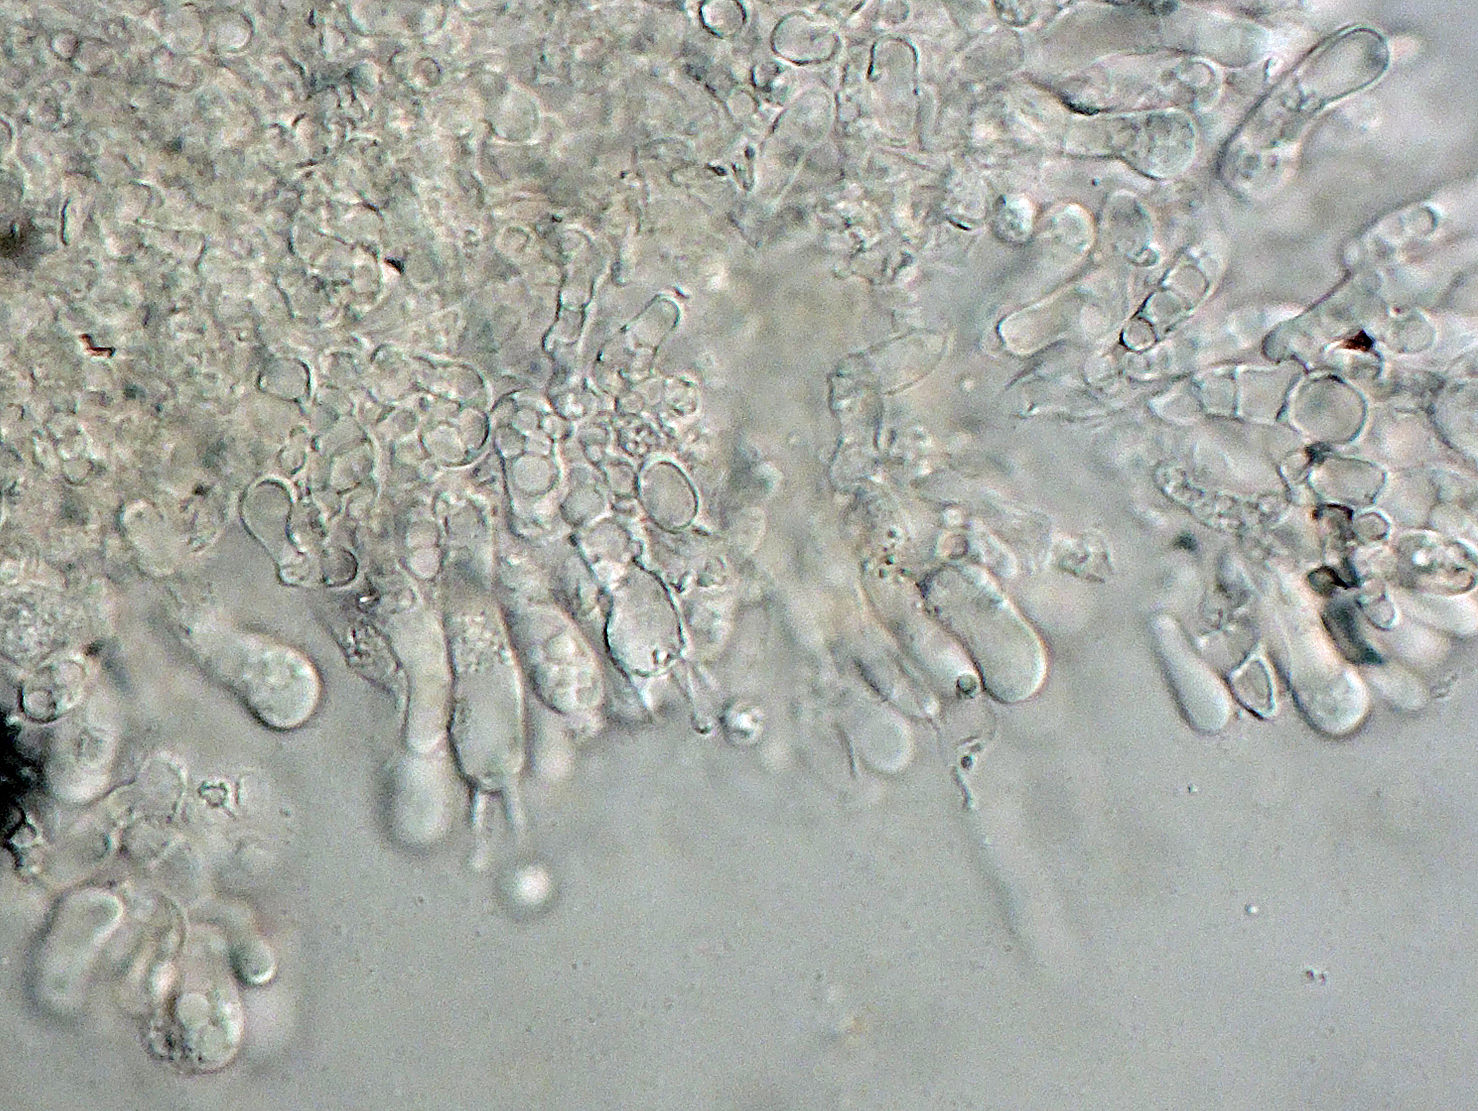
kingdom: Fungi
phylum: Basidiomycota
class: Agaricomycetes
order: Trechisporales
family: Hydnodontaceae
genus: Brevicellicium
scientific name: Brevicellicium olivascens
